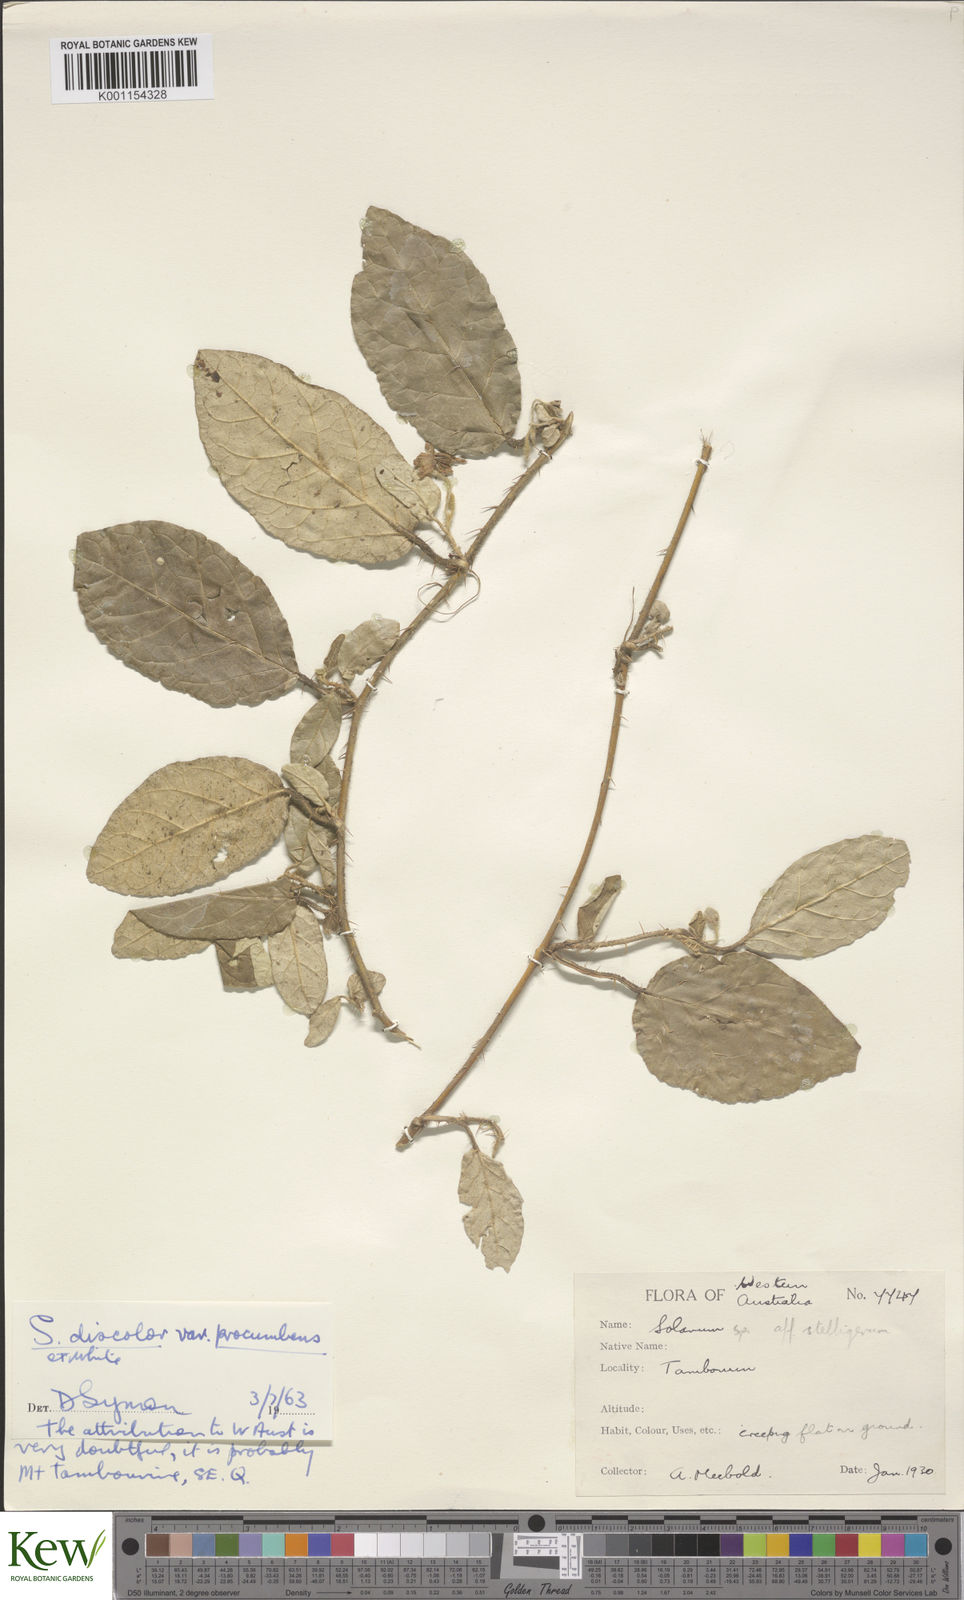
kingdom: Plantae
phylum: Tracheophyta
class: Magnoliopsida
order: Solanales
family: Solanaceae
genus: Solanum
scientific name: Solanum corifolium
